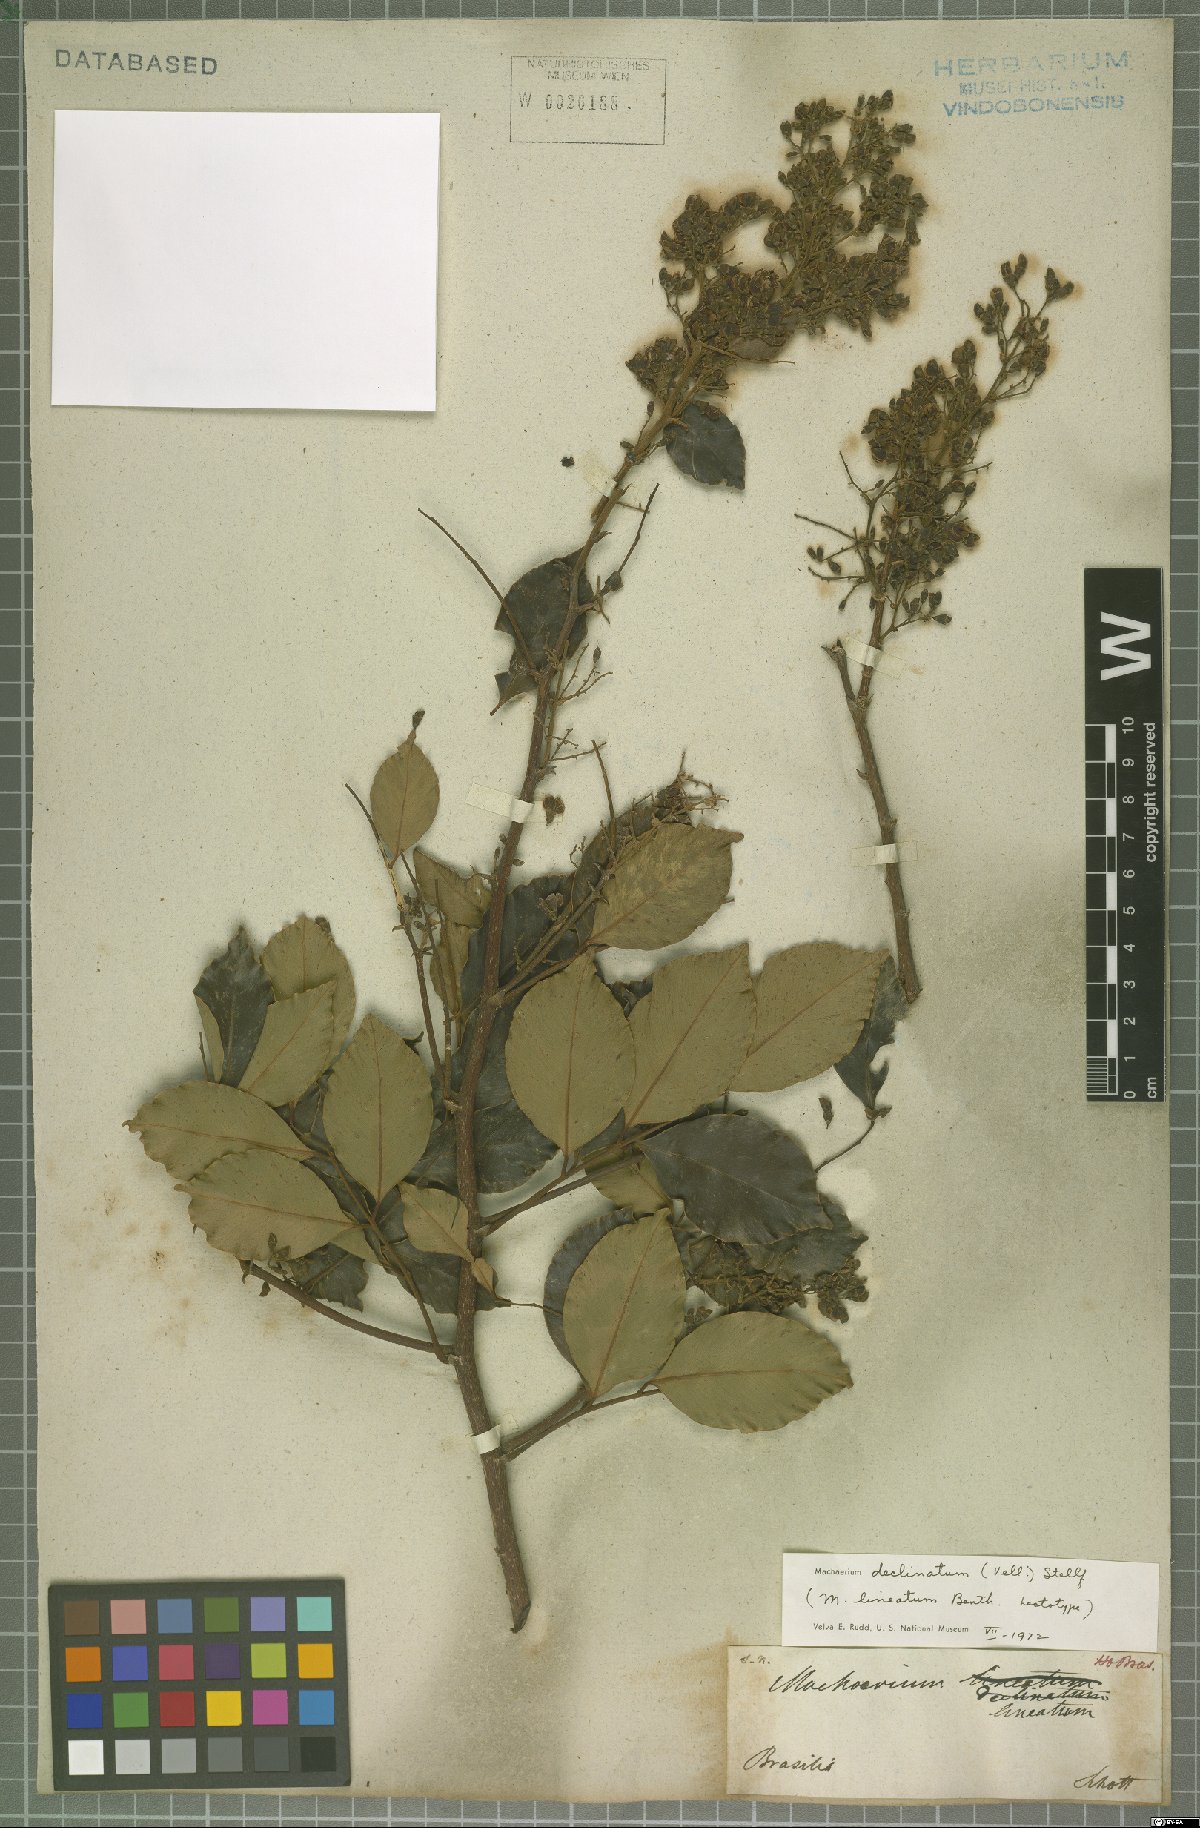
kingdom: Plantae
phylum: Tracheophyta
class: Magnoliopsida
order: Fabales
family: Fabaceae
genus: Machaerium
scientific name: Machaerium declinatum
